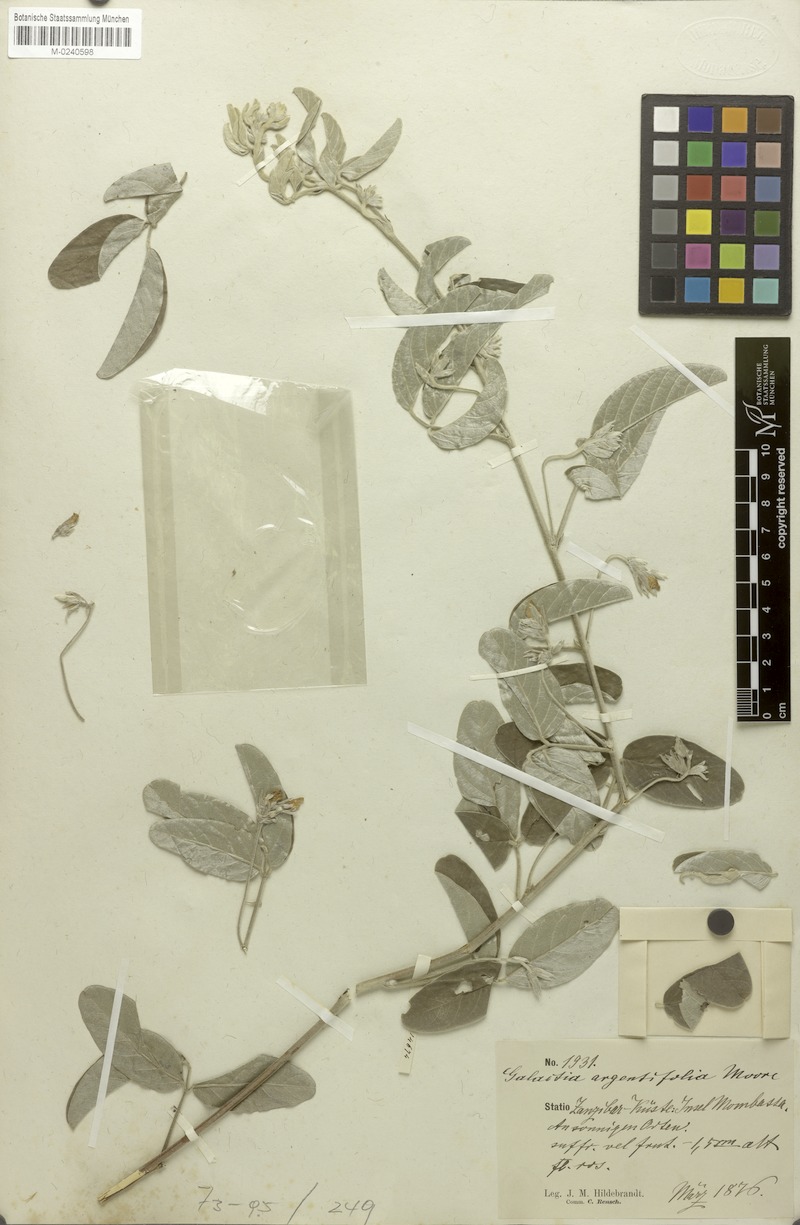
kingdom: Plantae
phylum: Tracheophyta
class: Magnoliopsida
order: Fabales
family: Fabaceae
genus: Galactia
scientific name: Galactia argentifolia
